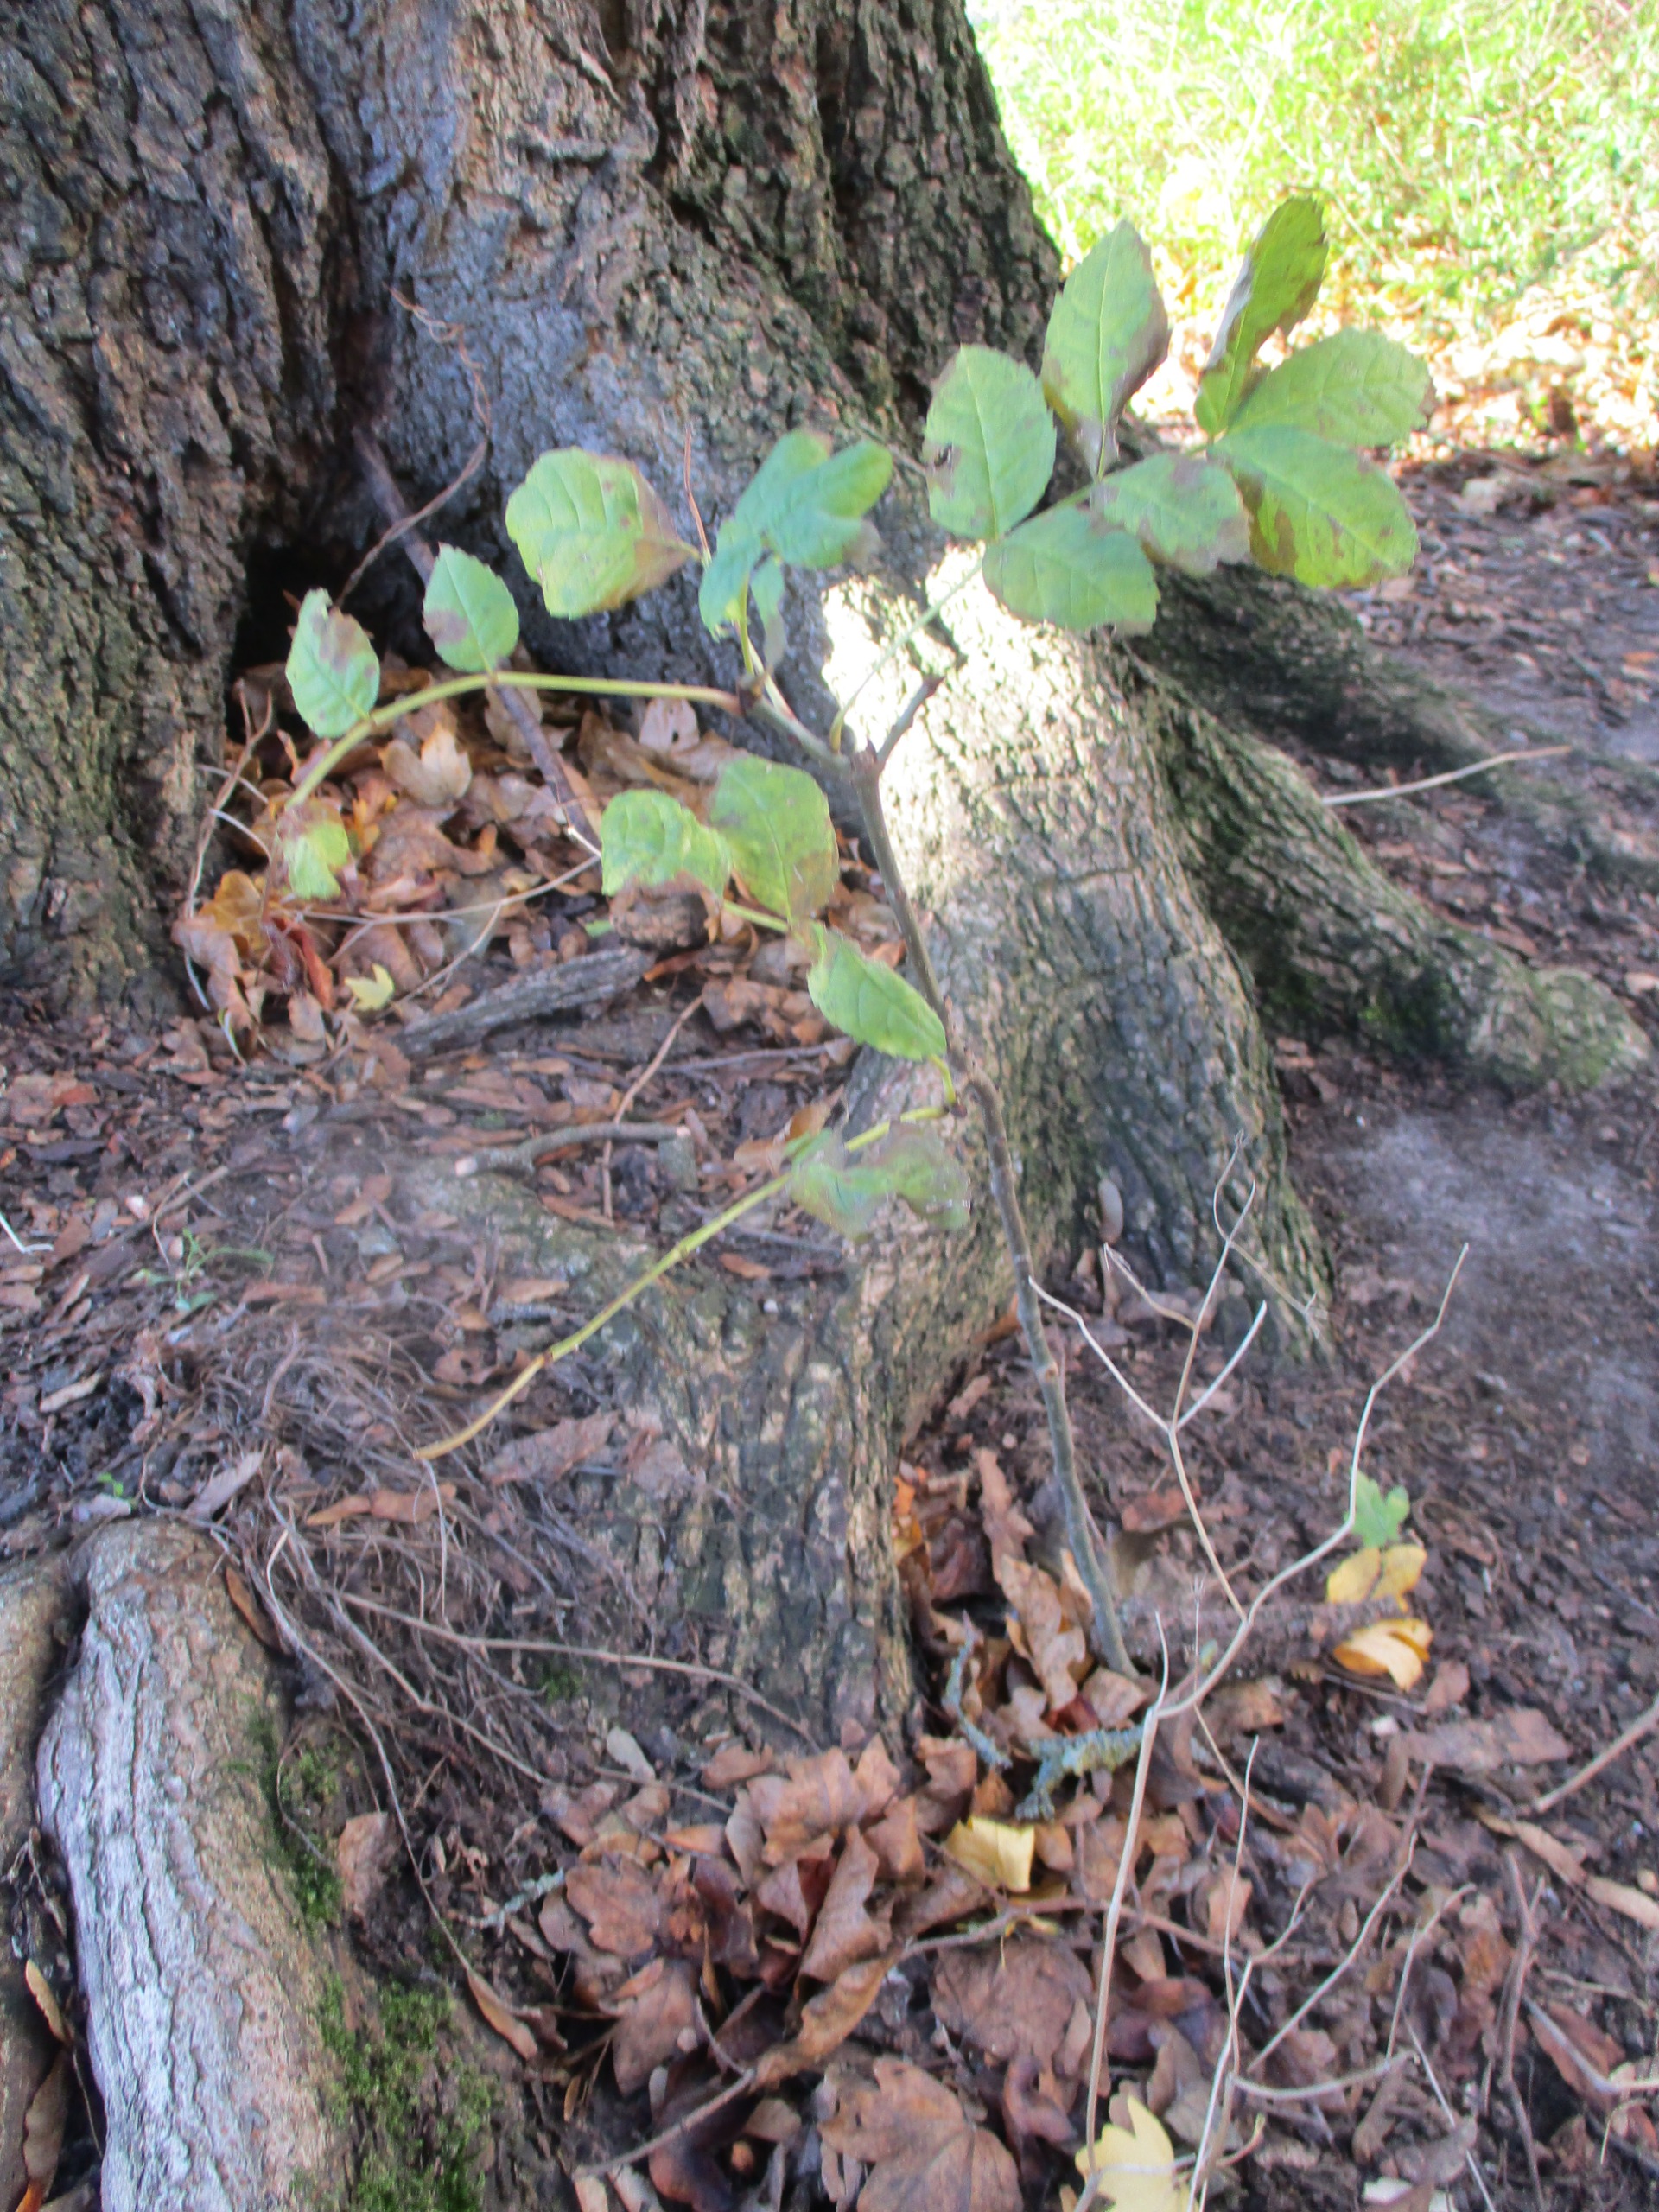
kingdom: Plantae
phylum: Tracheophyta
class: Magnoliopsida
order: Lamiales
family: Oleaceae
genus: Fraxinus
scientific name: Fraxinus excelsior
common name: Ask
